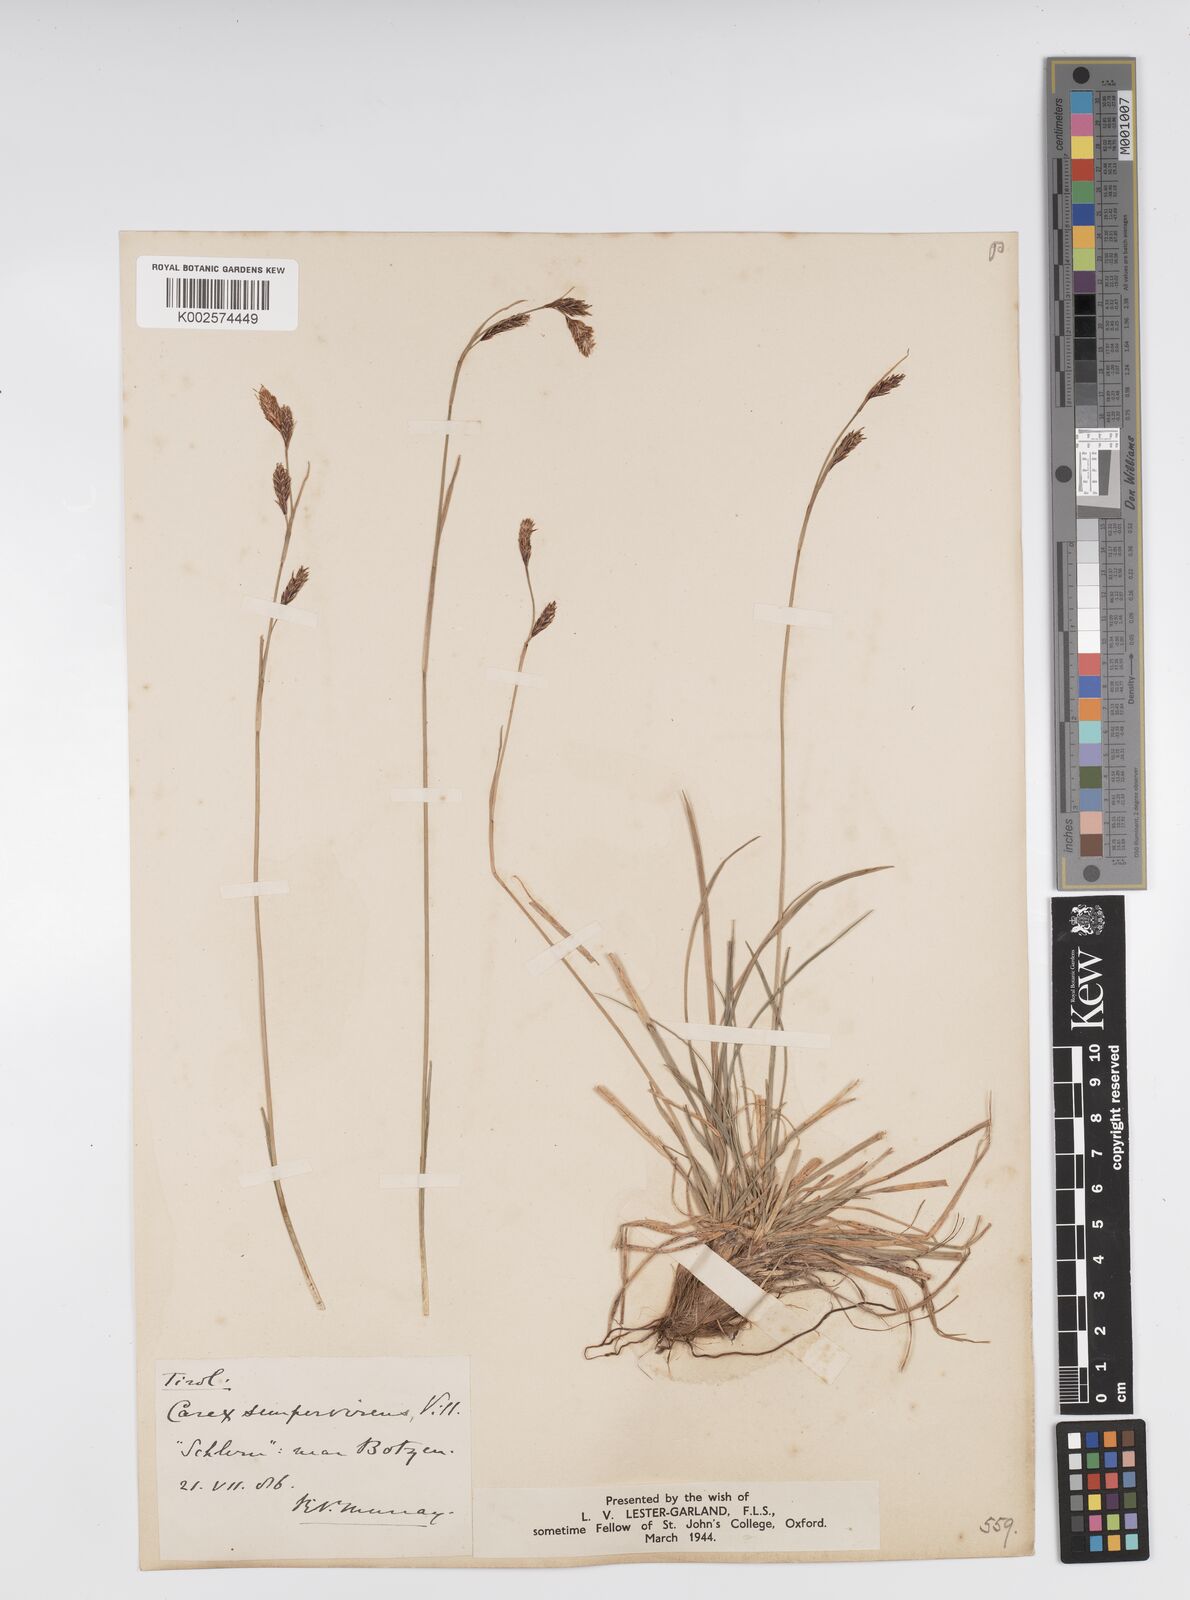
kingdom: Plantae
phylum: Tracheophyta
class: Liliopsida
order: Poales
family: Cyperaceae
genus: Carex
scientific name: Carex sempervirens
